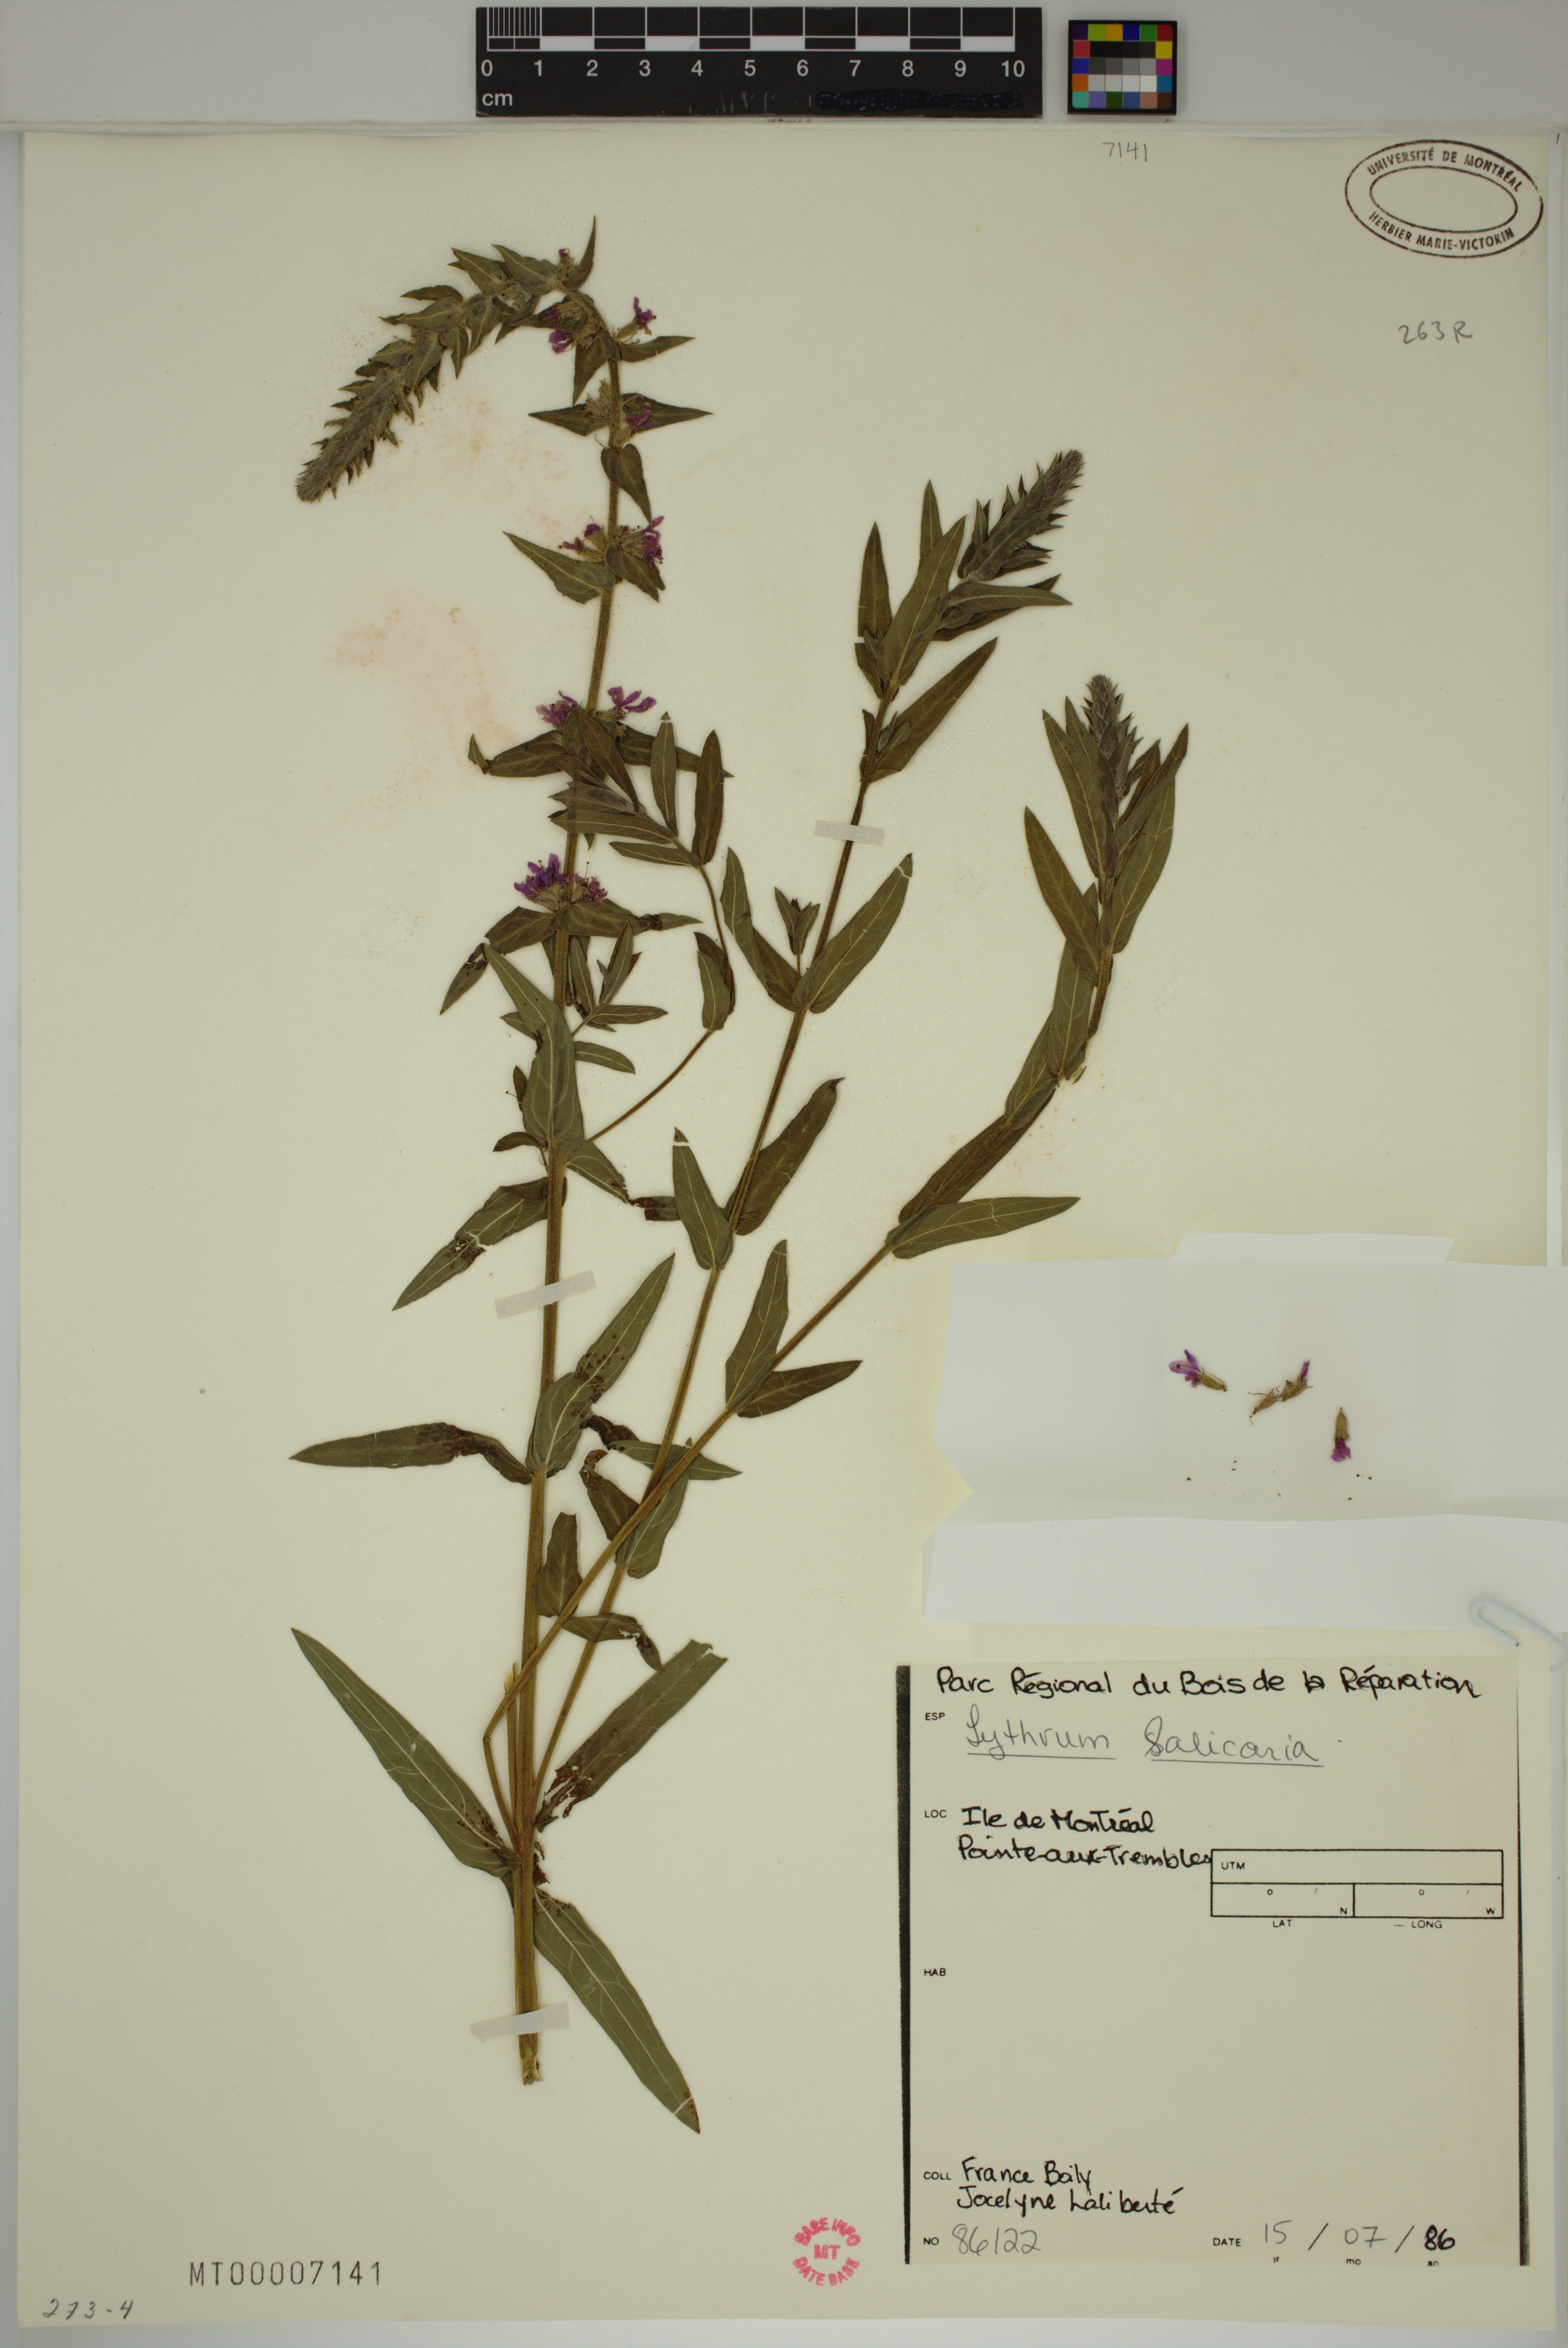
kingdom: Plantae
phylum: Tracheophyta
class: Magnoliopsida
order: Myrtales
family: Lythraceae
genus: Lythrum
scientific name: Lythrum salicaria
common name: Purple loosestrife
